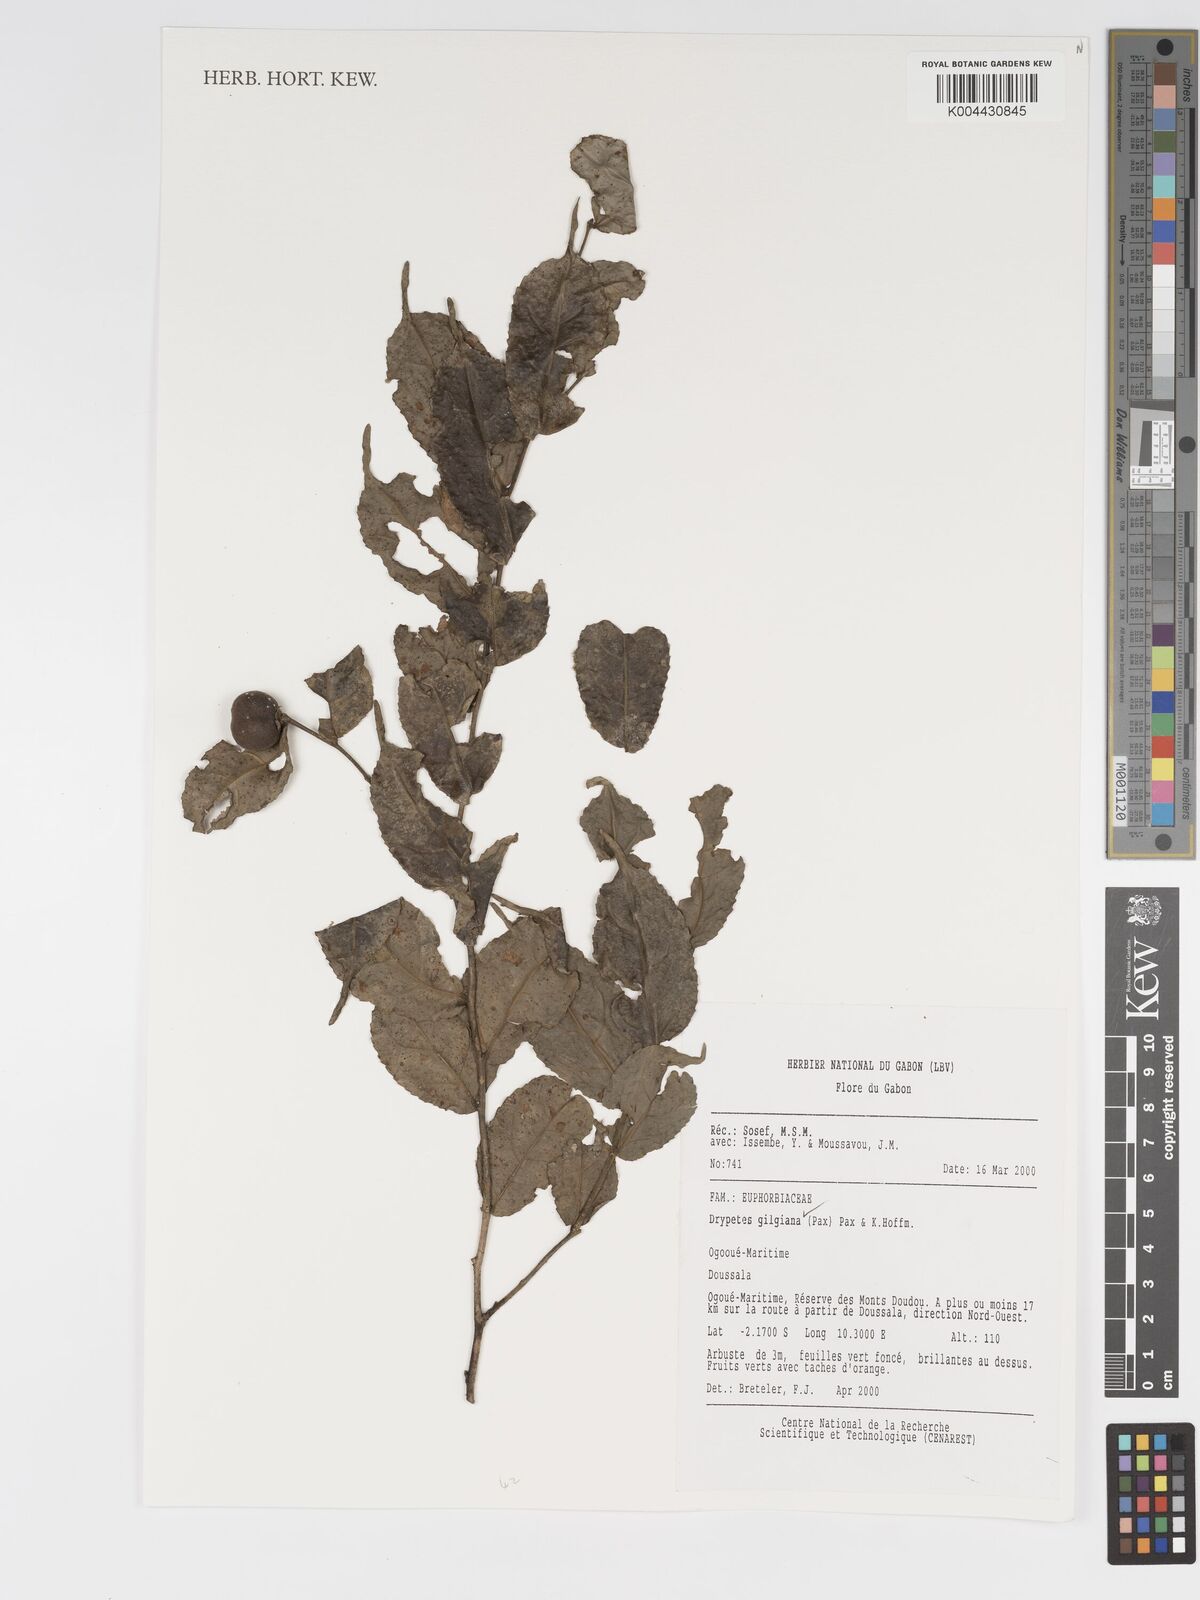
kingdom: Plantae
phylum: Tracheophyta
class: Magnoliopsida
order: Malpighiales
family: Putranjivaceae
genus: Drypetes
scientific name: Drypetes gilgiana
